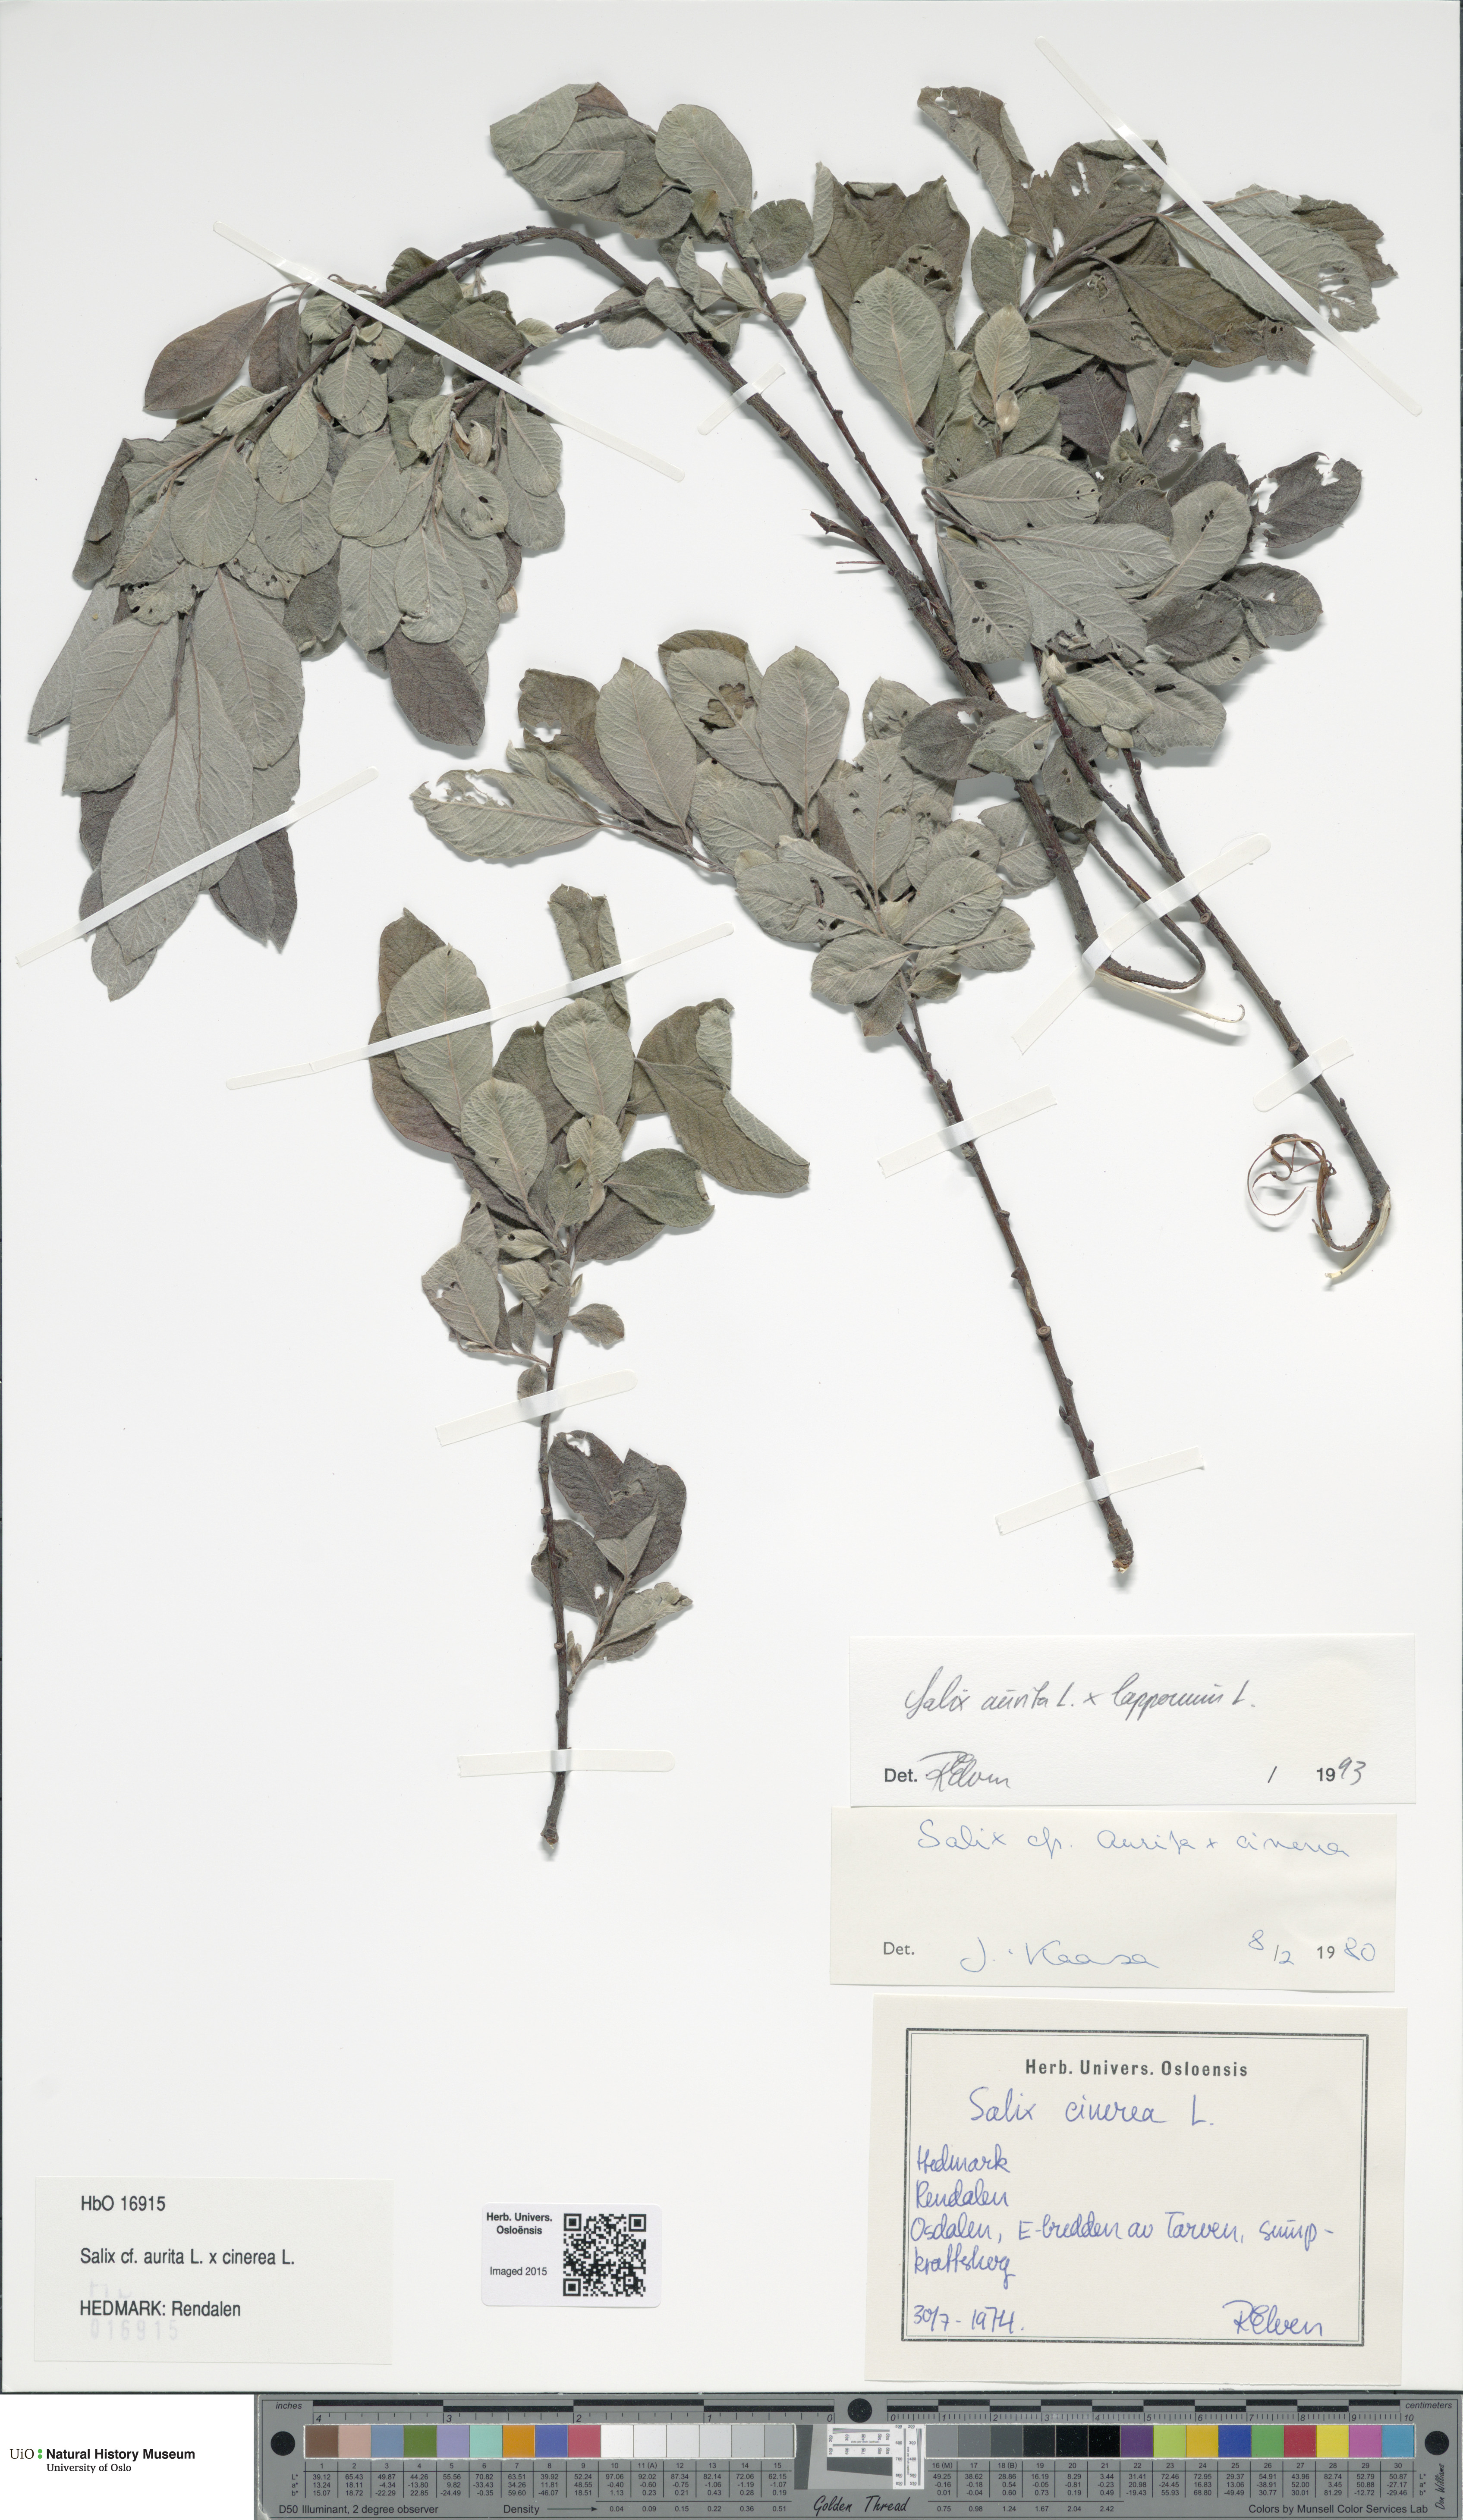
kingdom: Plantae
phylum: Tracheophyta
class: Magnoliopsida
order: Malpighiales
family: Salicaceae
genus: Salix
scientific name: Salix
